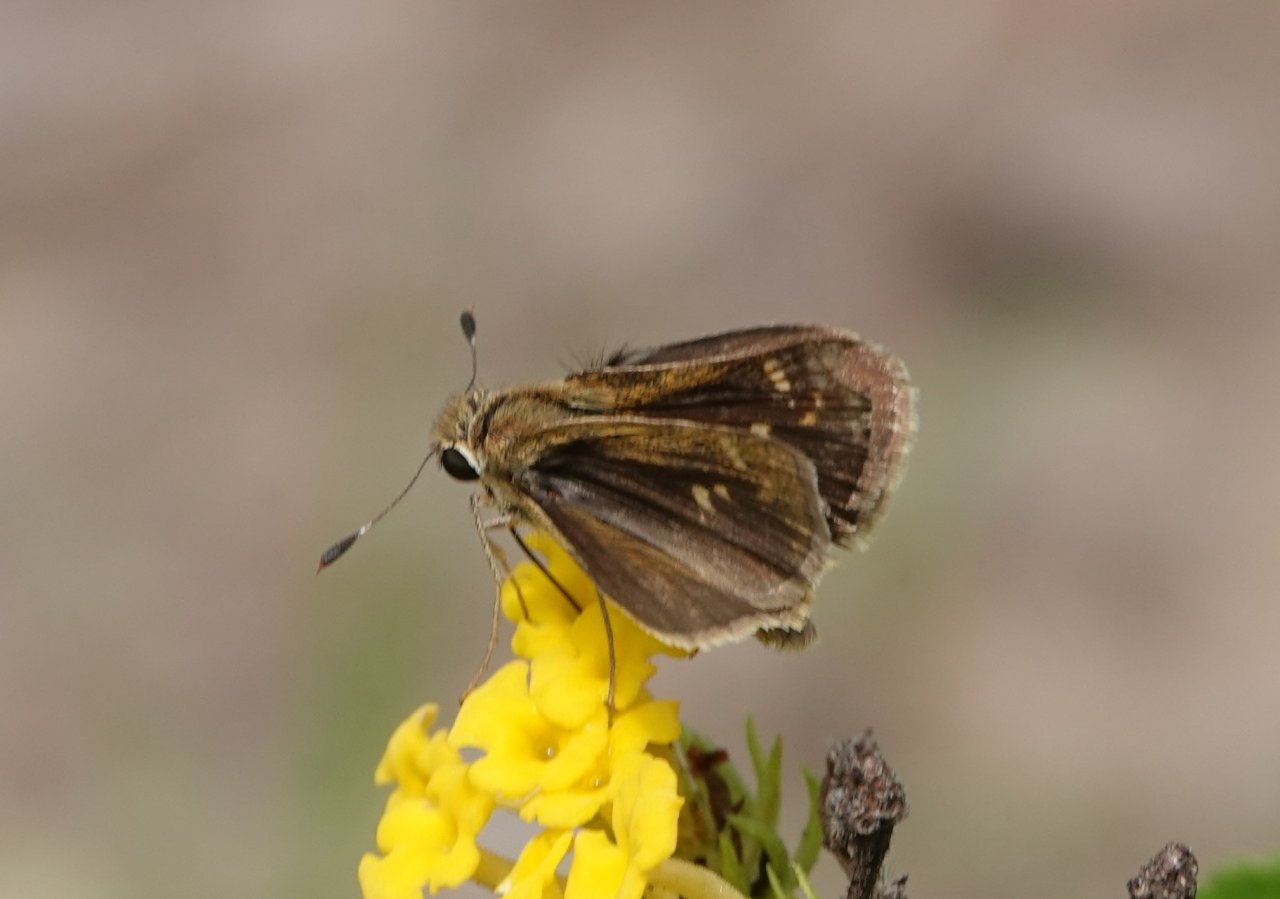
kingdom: Animalia
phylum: Arthropoda
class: Insecta
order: Lepidoptera
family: Hesperiidae
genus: Lerodea
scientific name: Lerodea eufala
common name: Eufala Skipper
